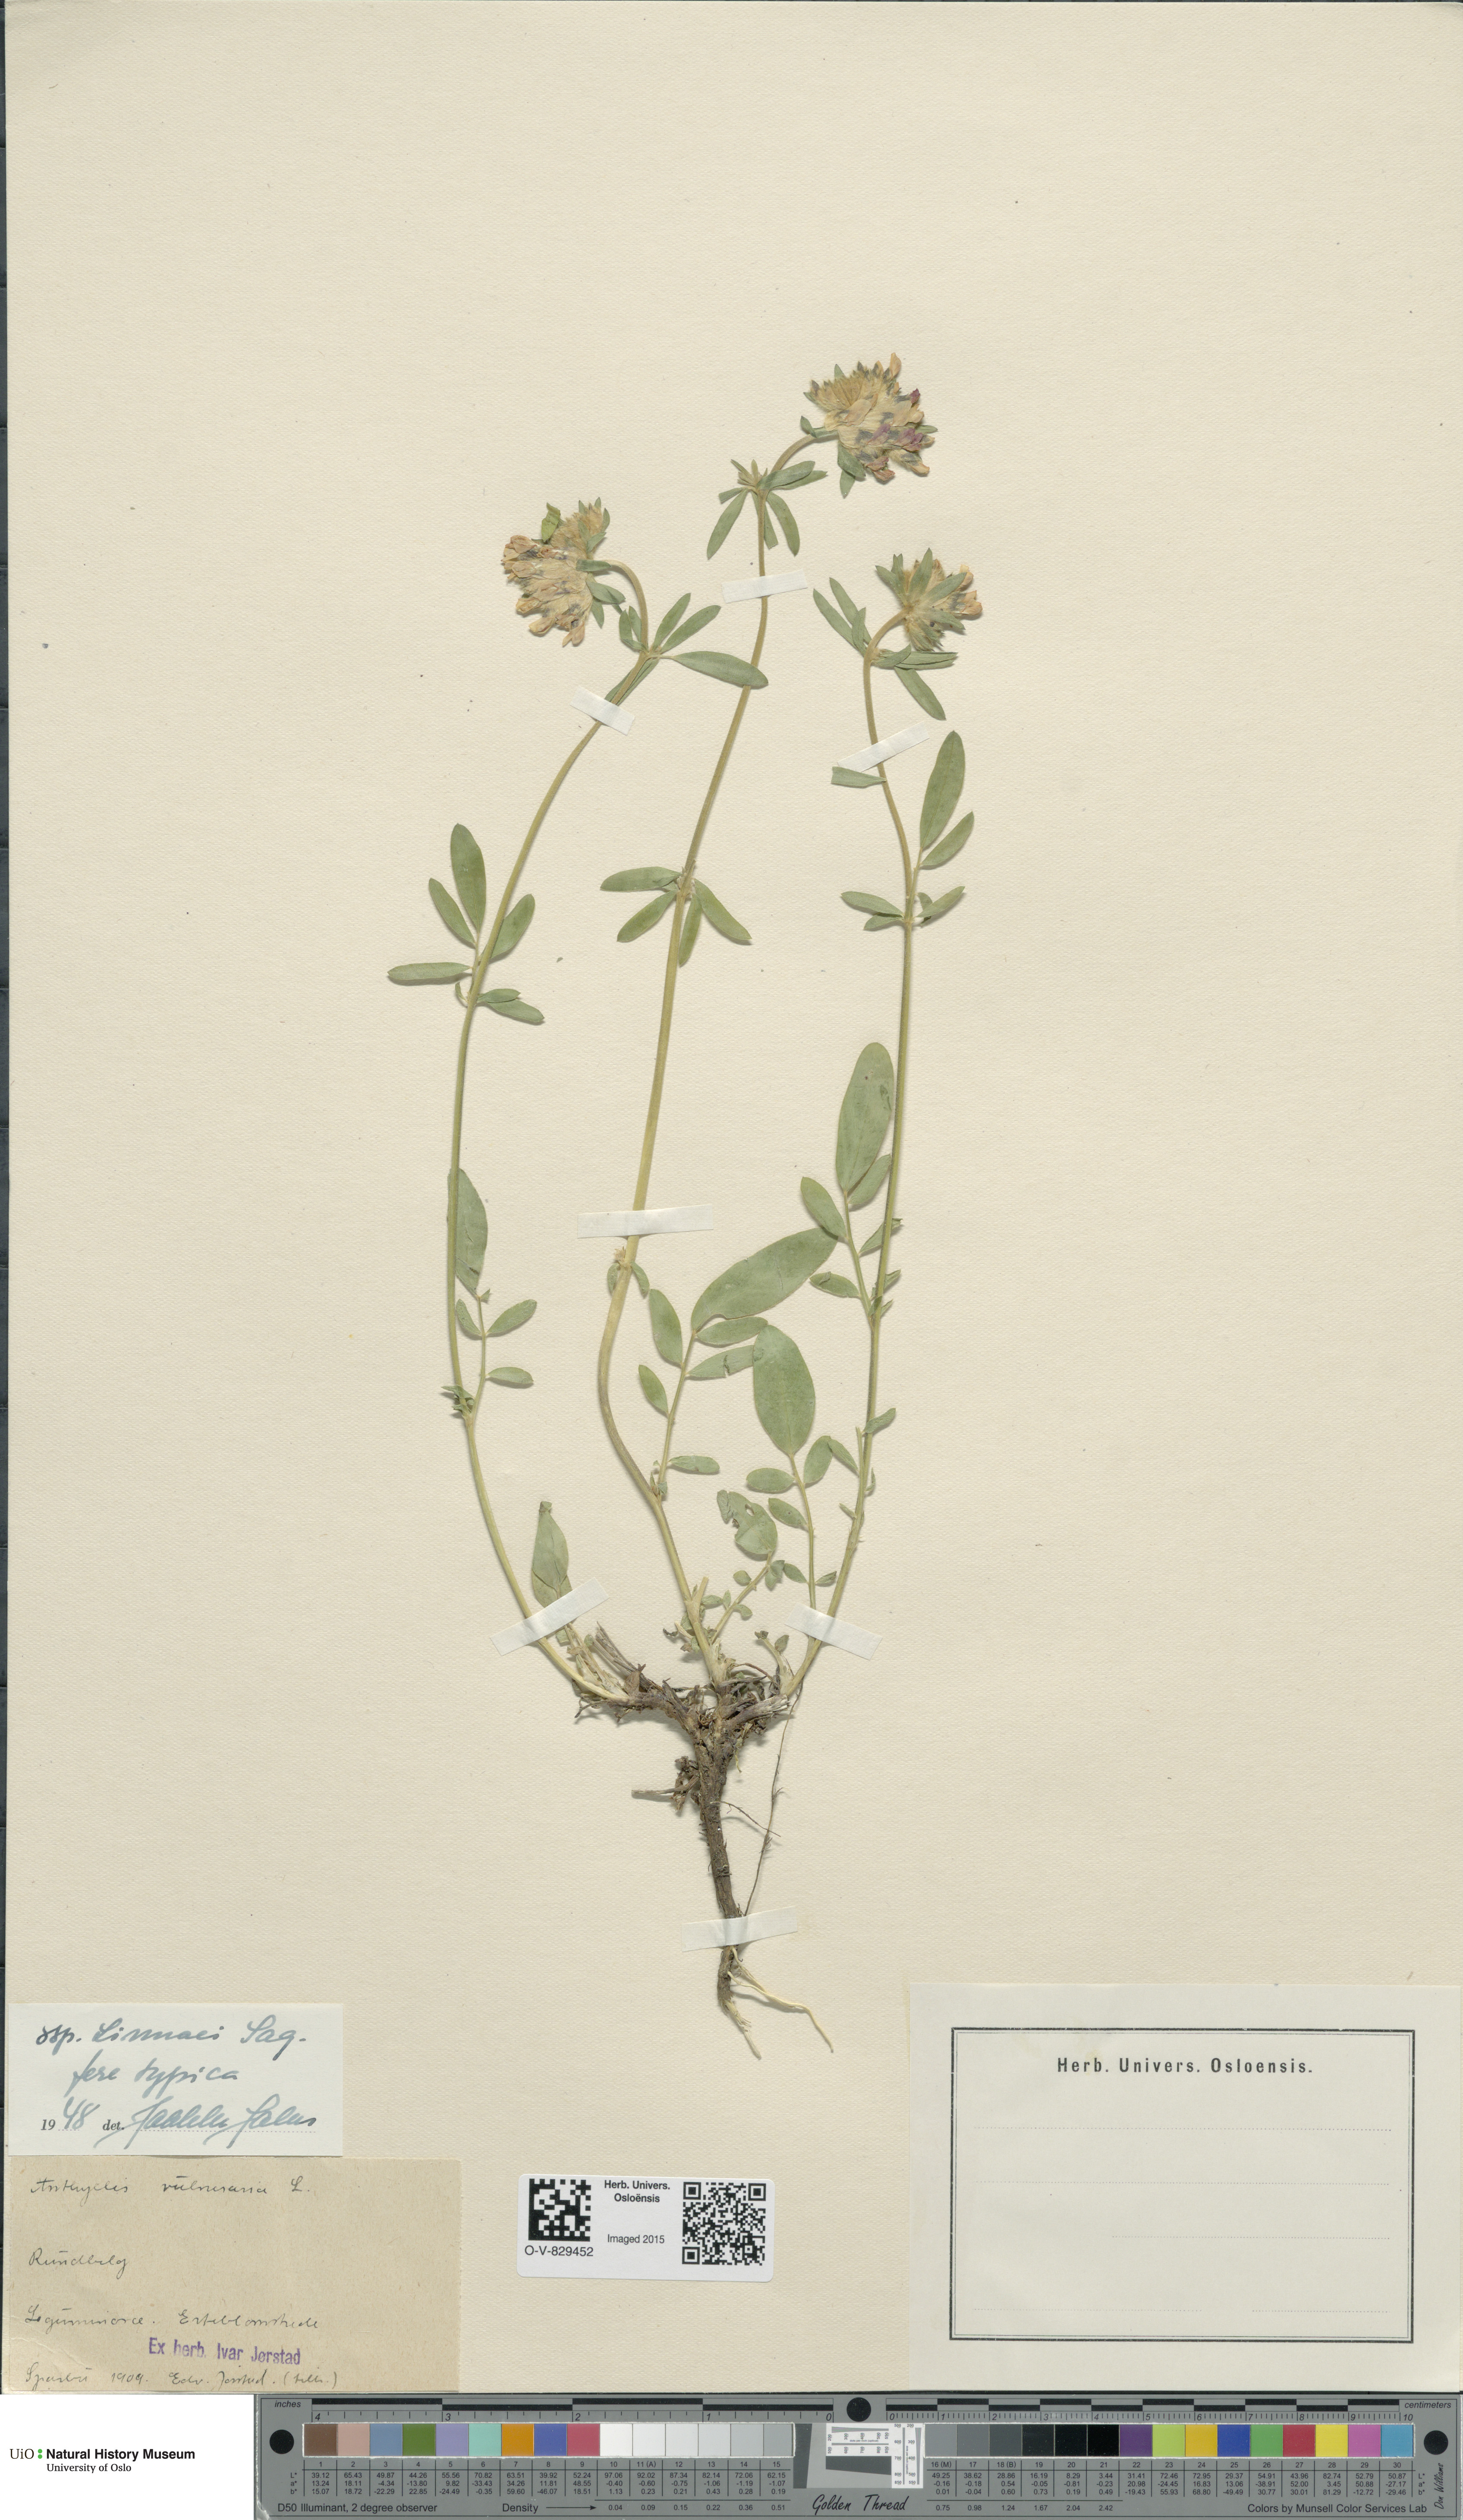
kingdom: Plantae
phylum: Tracheophyta
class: Magnoliopsida
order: Fabales
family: Fabaceae
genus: Anthyllis
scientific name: Anthyllis vulneraria
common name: Kidney vetch
